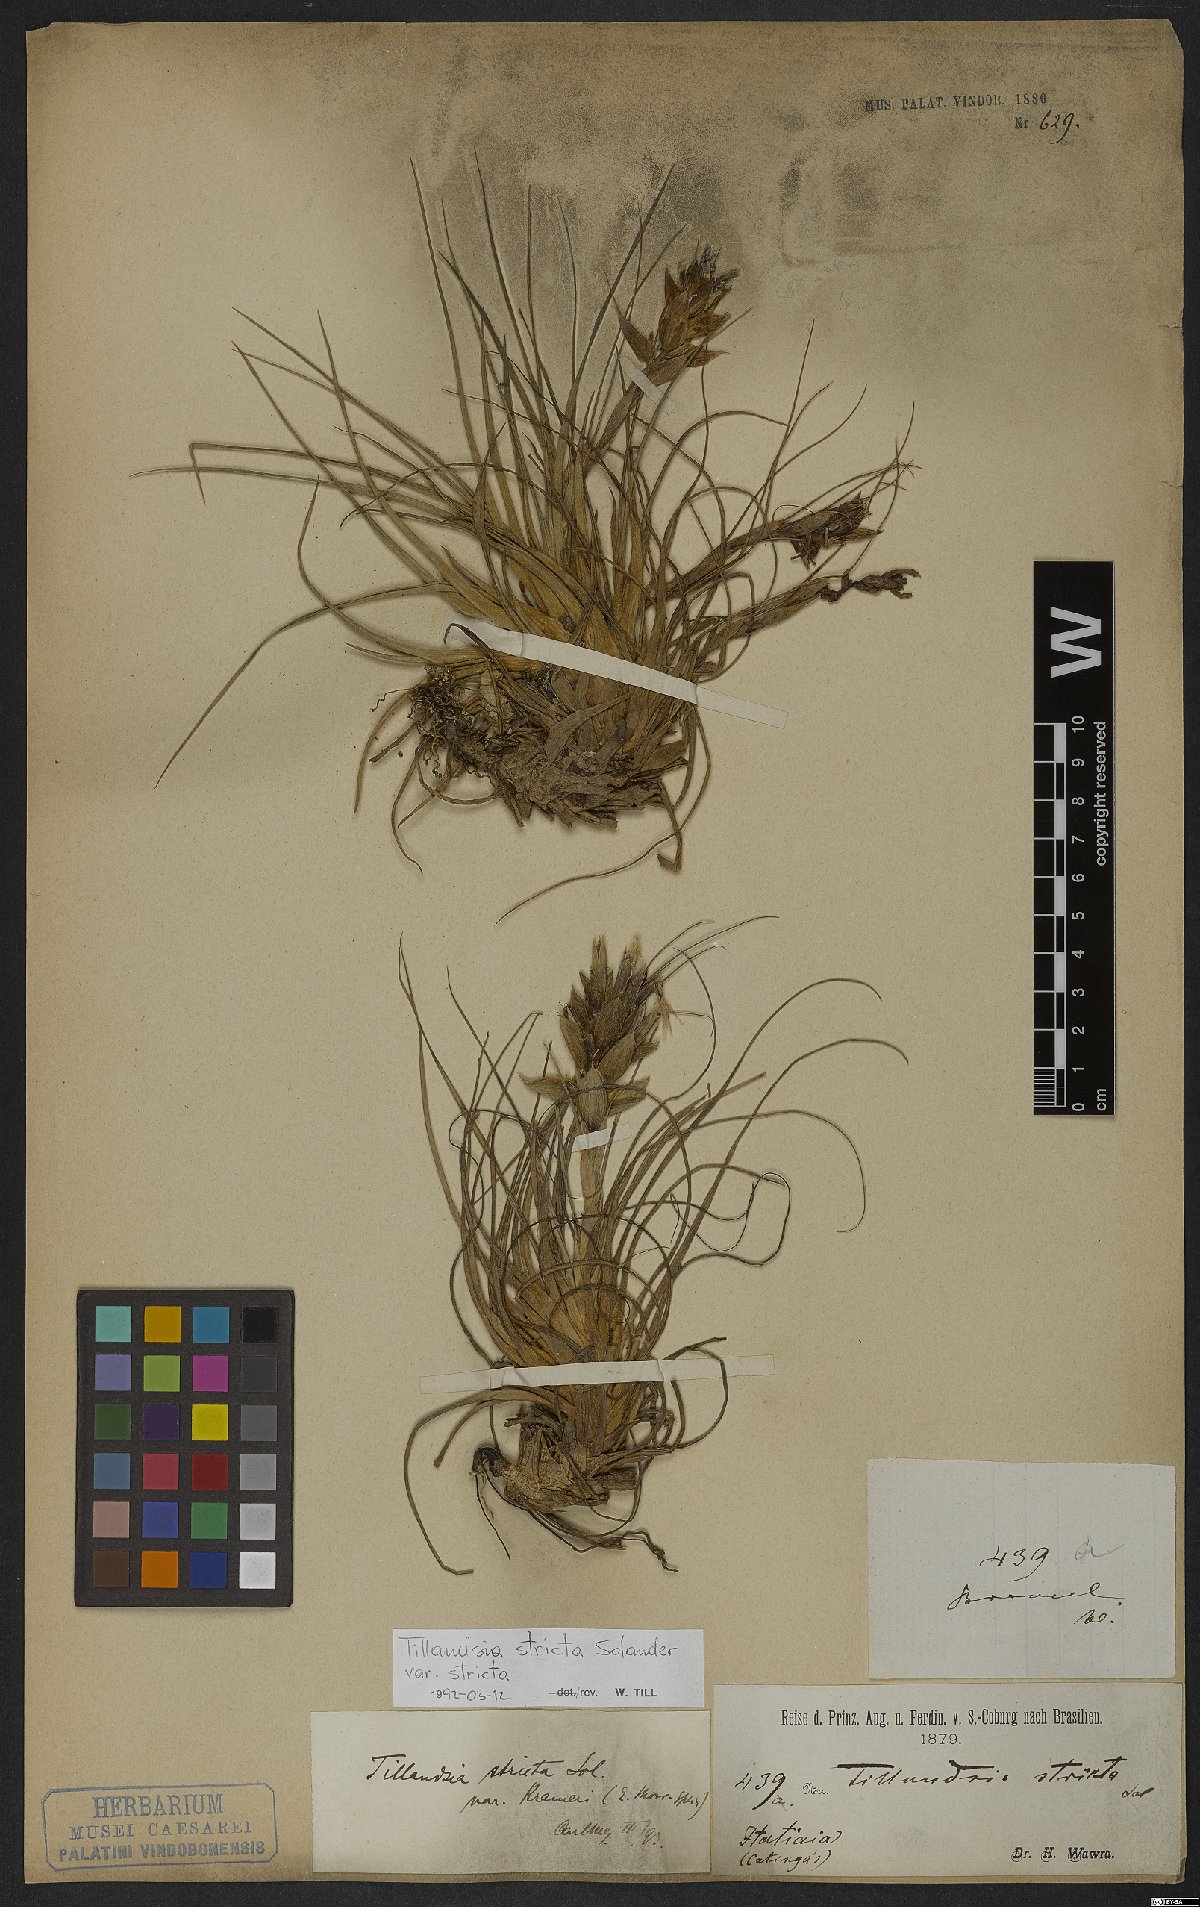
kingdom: Plantae
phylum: Tracheophyta
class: Liliopsida
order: Poales
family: Bromeliaceae
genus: Tillandsia
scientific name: Tillandsia stricta
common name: Airplant
